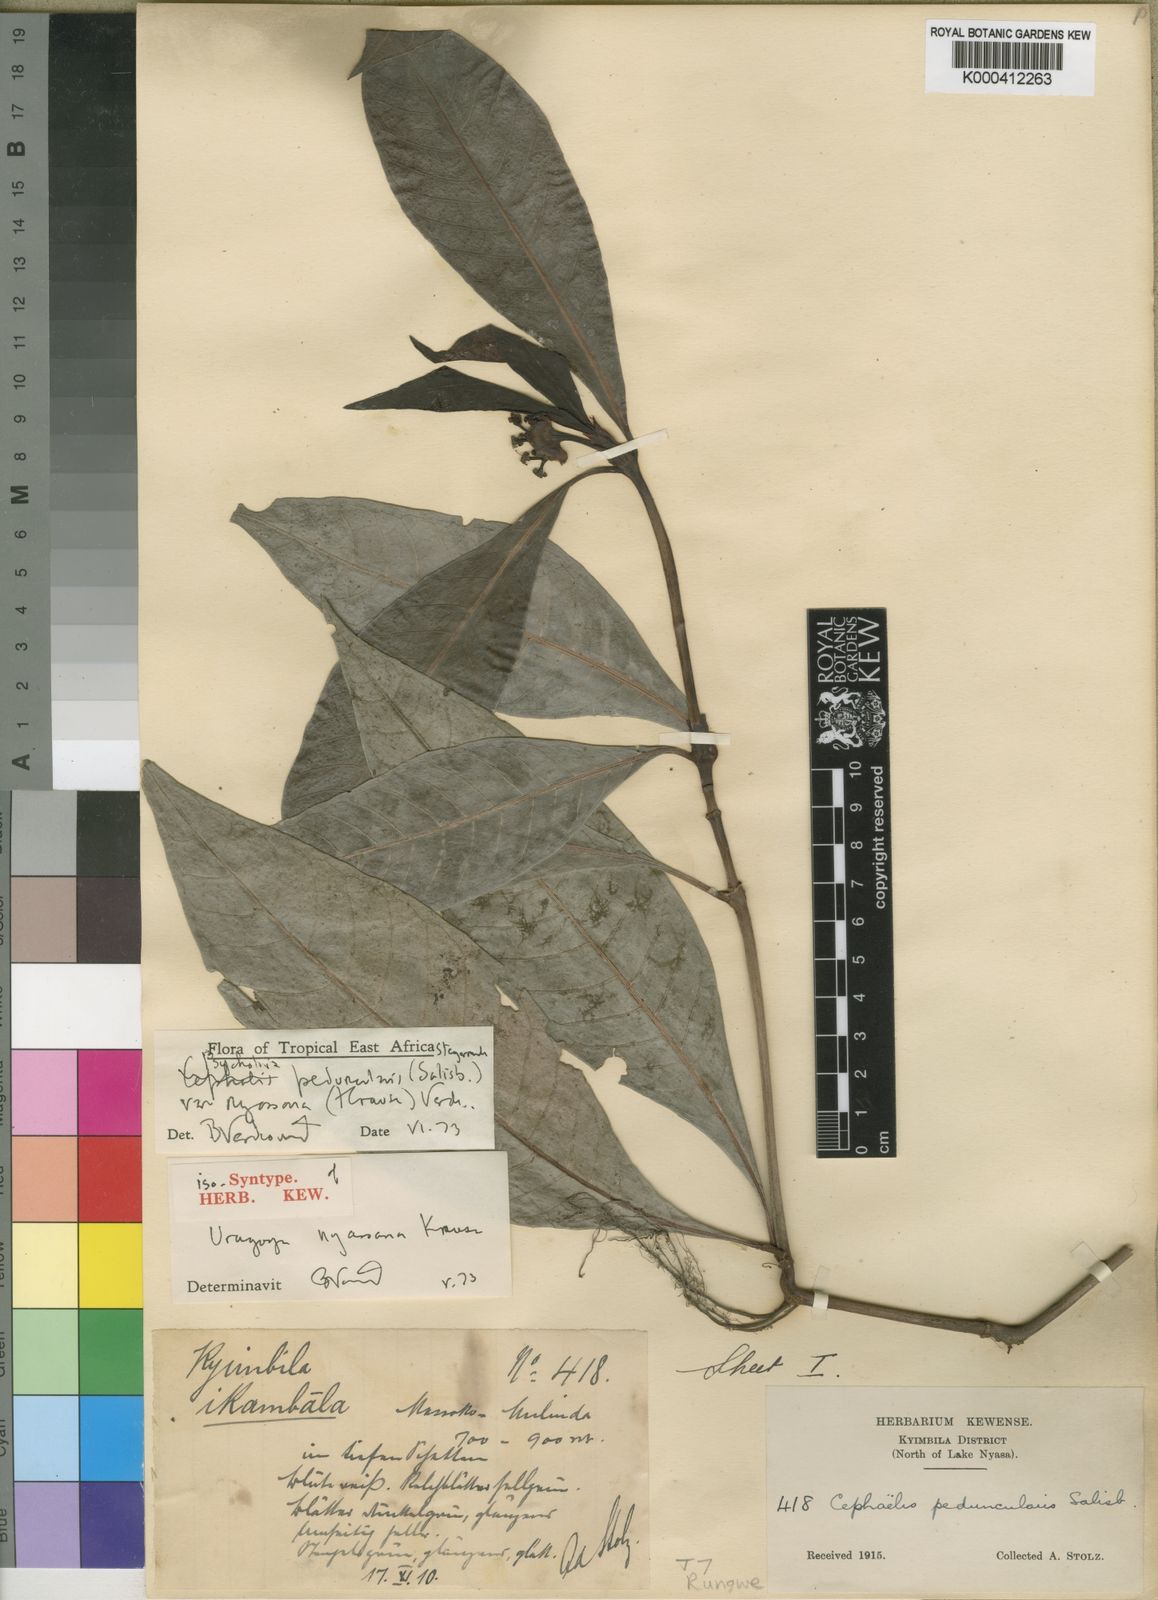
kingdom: Plantae
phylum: Tracheophyta
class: Magnoliopsida
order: Gentianales
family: Rubiaceae
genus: Psychotria
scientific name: Psychotria peduncularis
